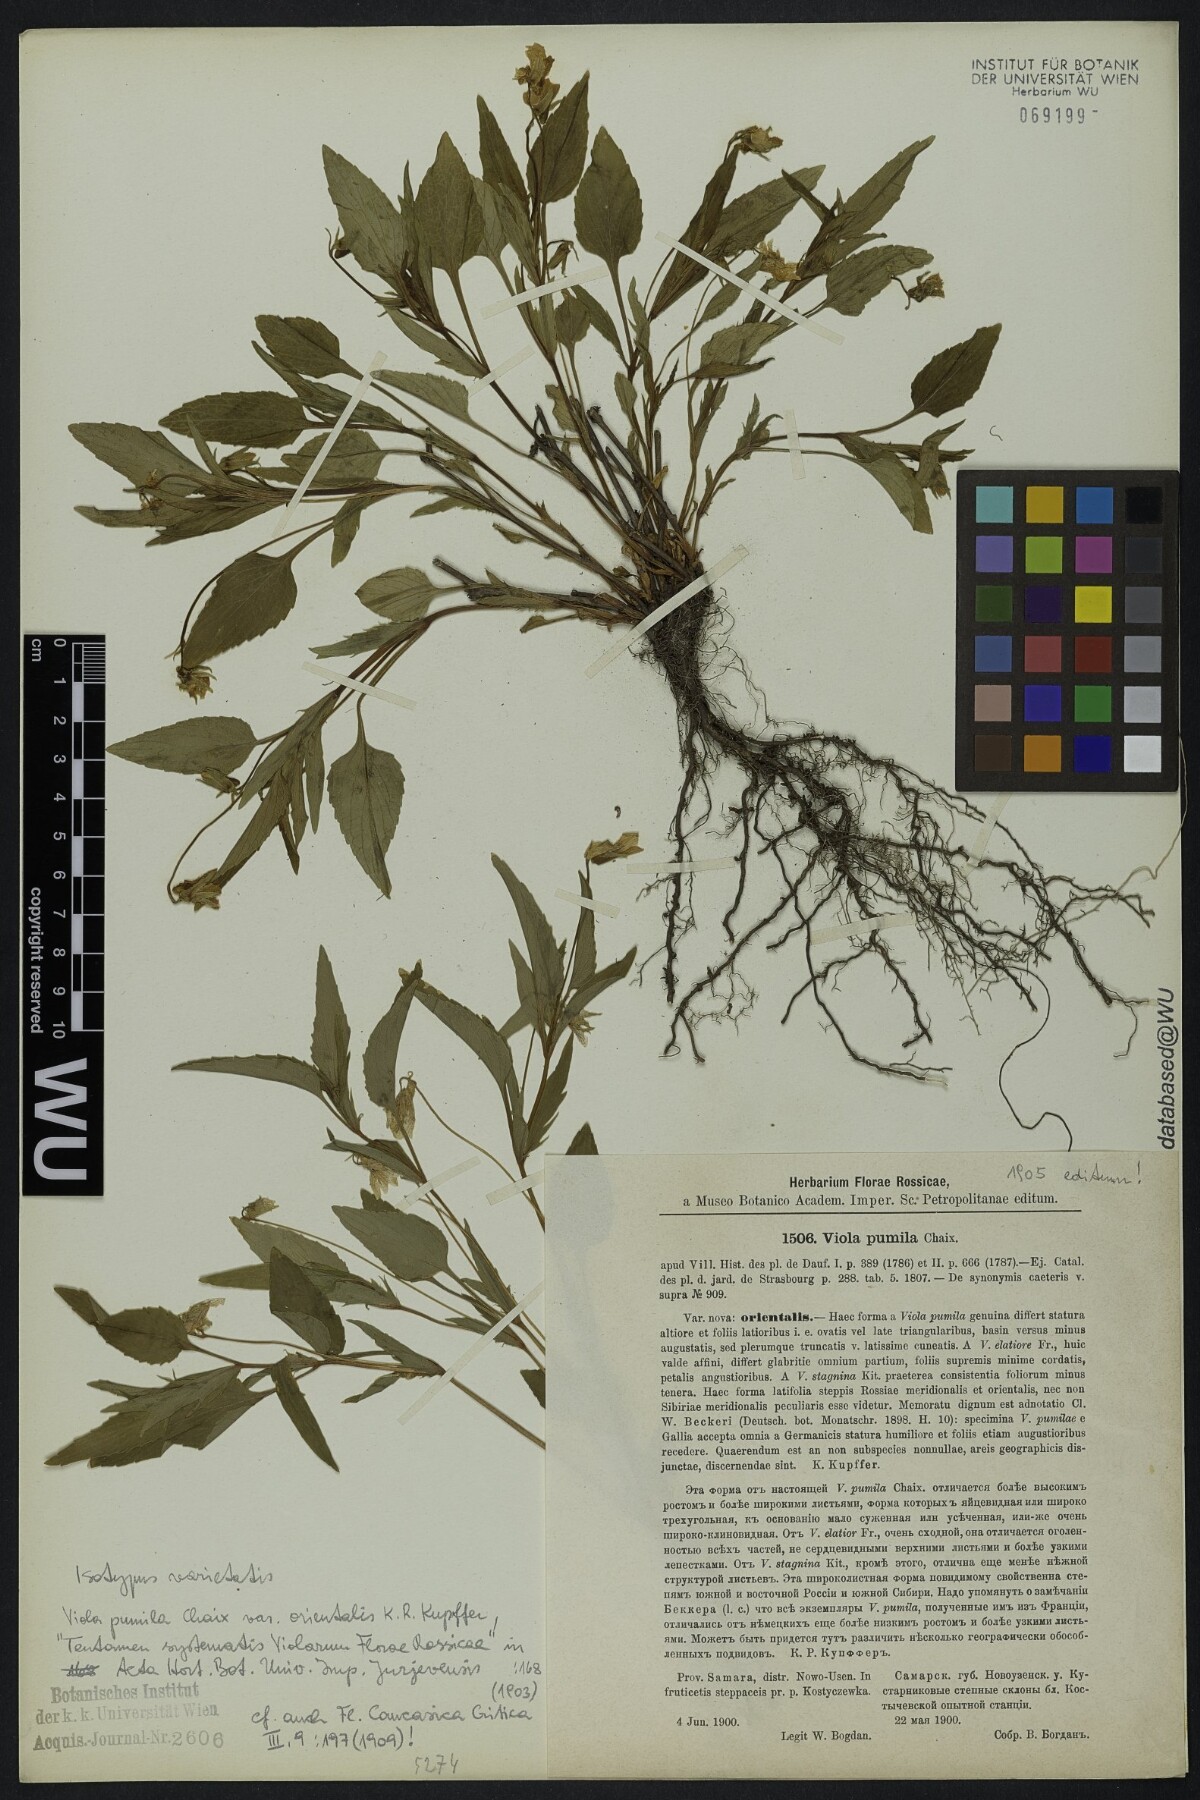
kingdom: Plantae
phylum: Tracheophyta
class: Magnoliopsida
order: Malpighiales
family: Violaceae
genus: Viola
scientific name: Viola pumila
